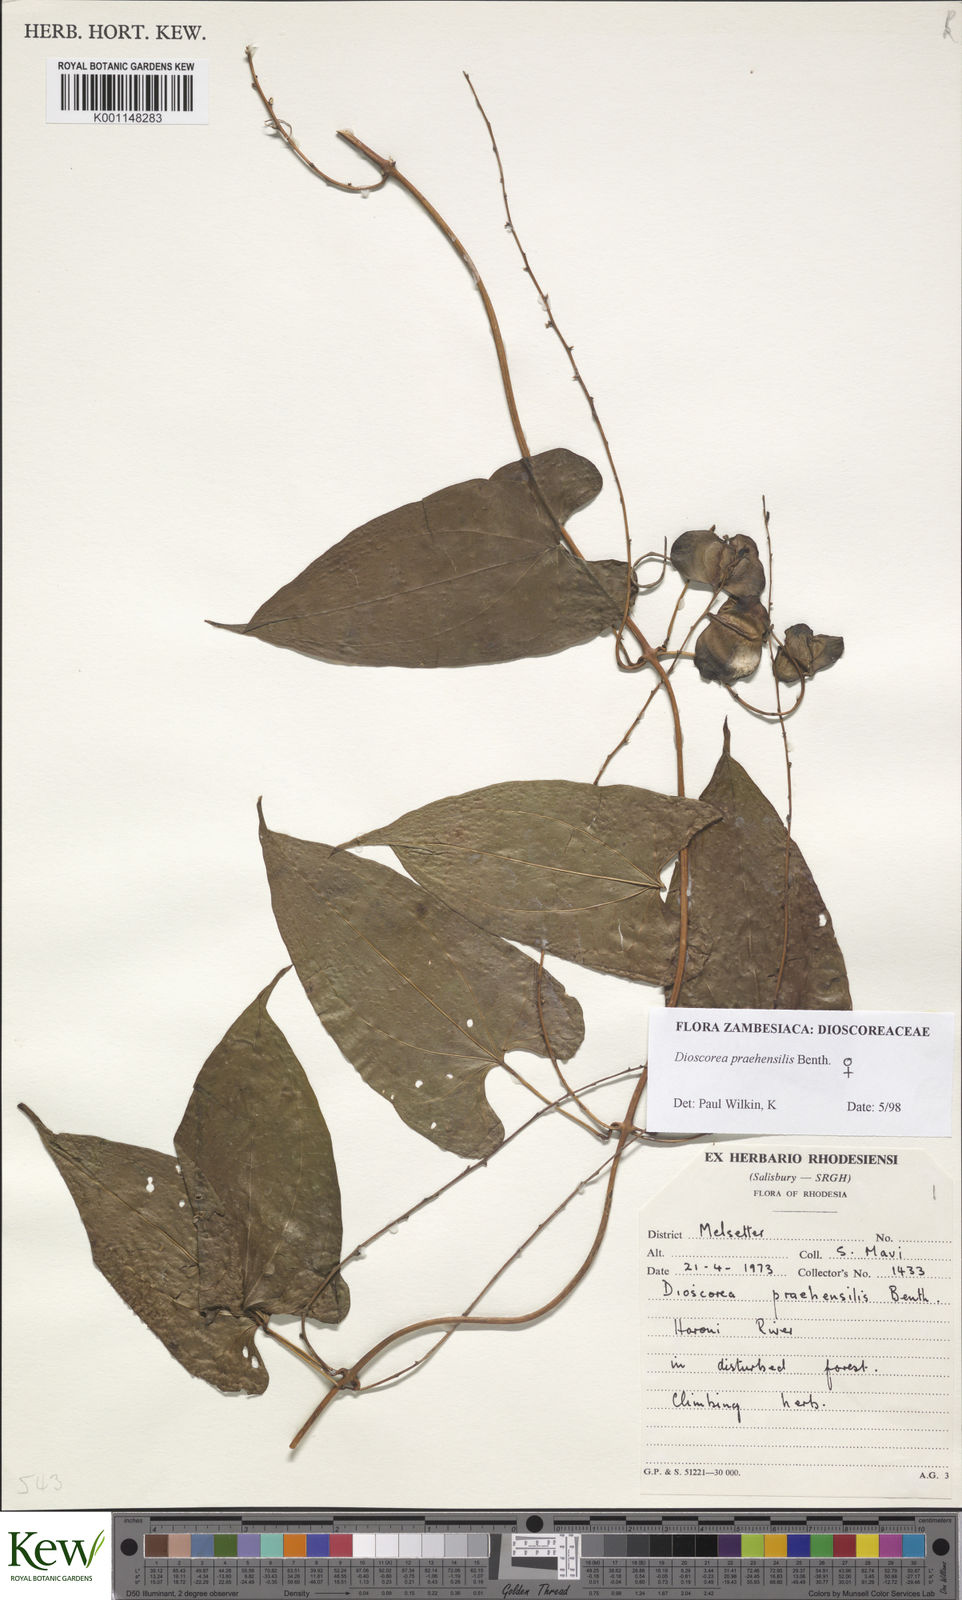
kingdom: Plantae
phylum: Tracheophyta
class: Liliopsida
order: Dioscoreales
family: Dioscoreaceae
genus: Dioscorea
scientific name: Dioscorea praehensilis
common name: Bush yam
